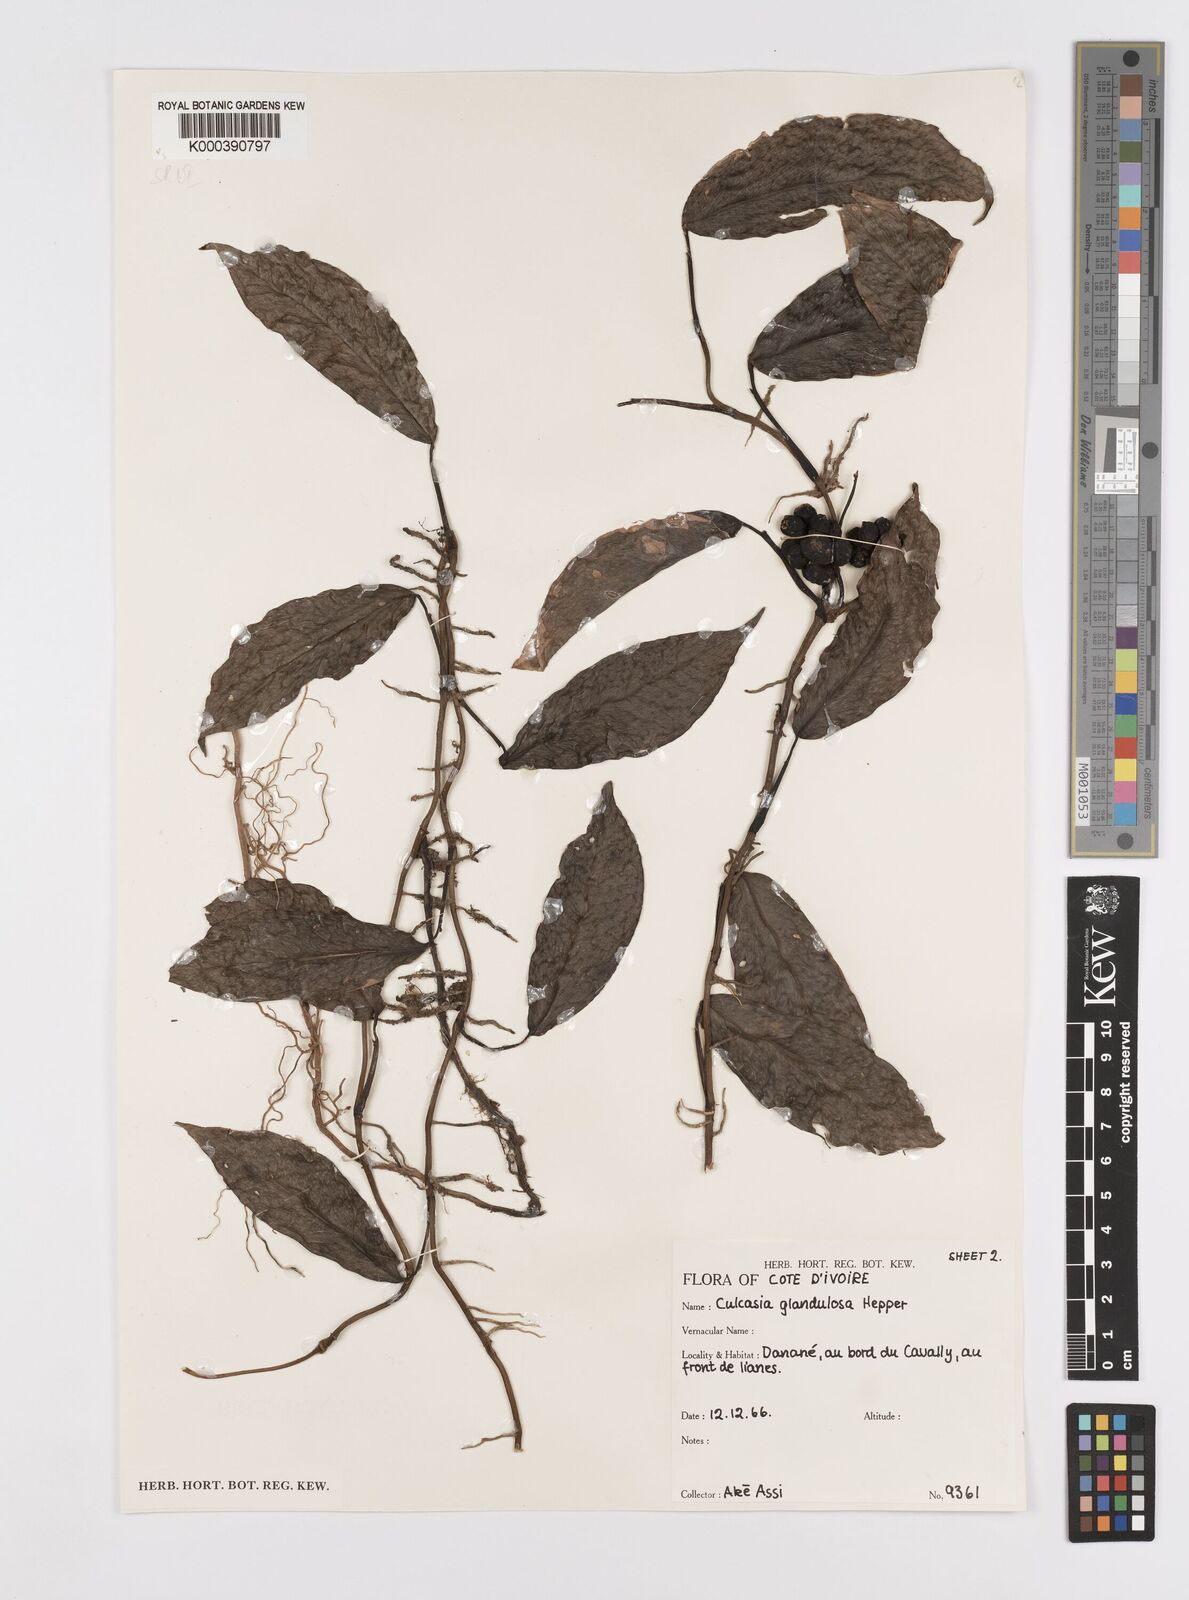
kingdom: Plantae
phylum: Tracheophyta
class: Liliopsida
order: Alismatales
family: Araceae
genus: Culcasia
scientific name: Culcasia glandulosa
